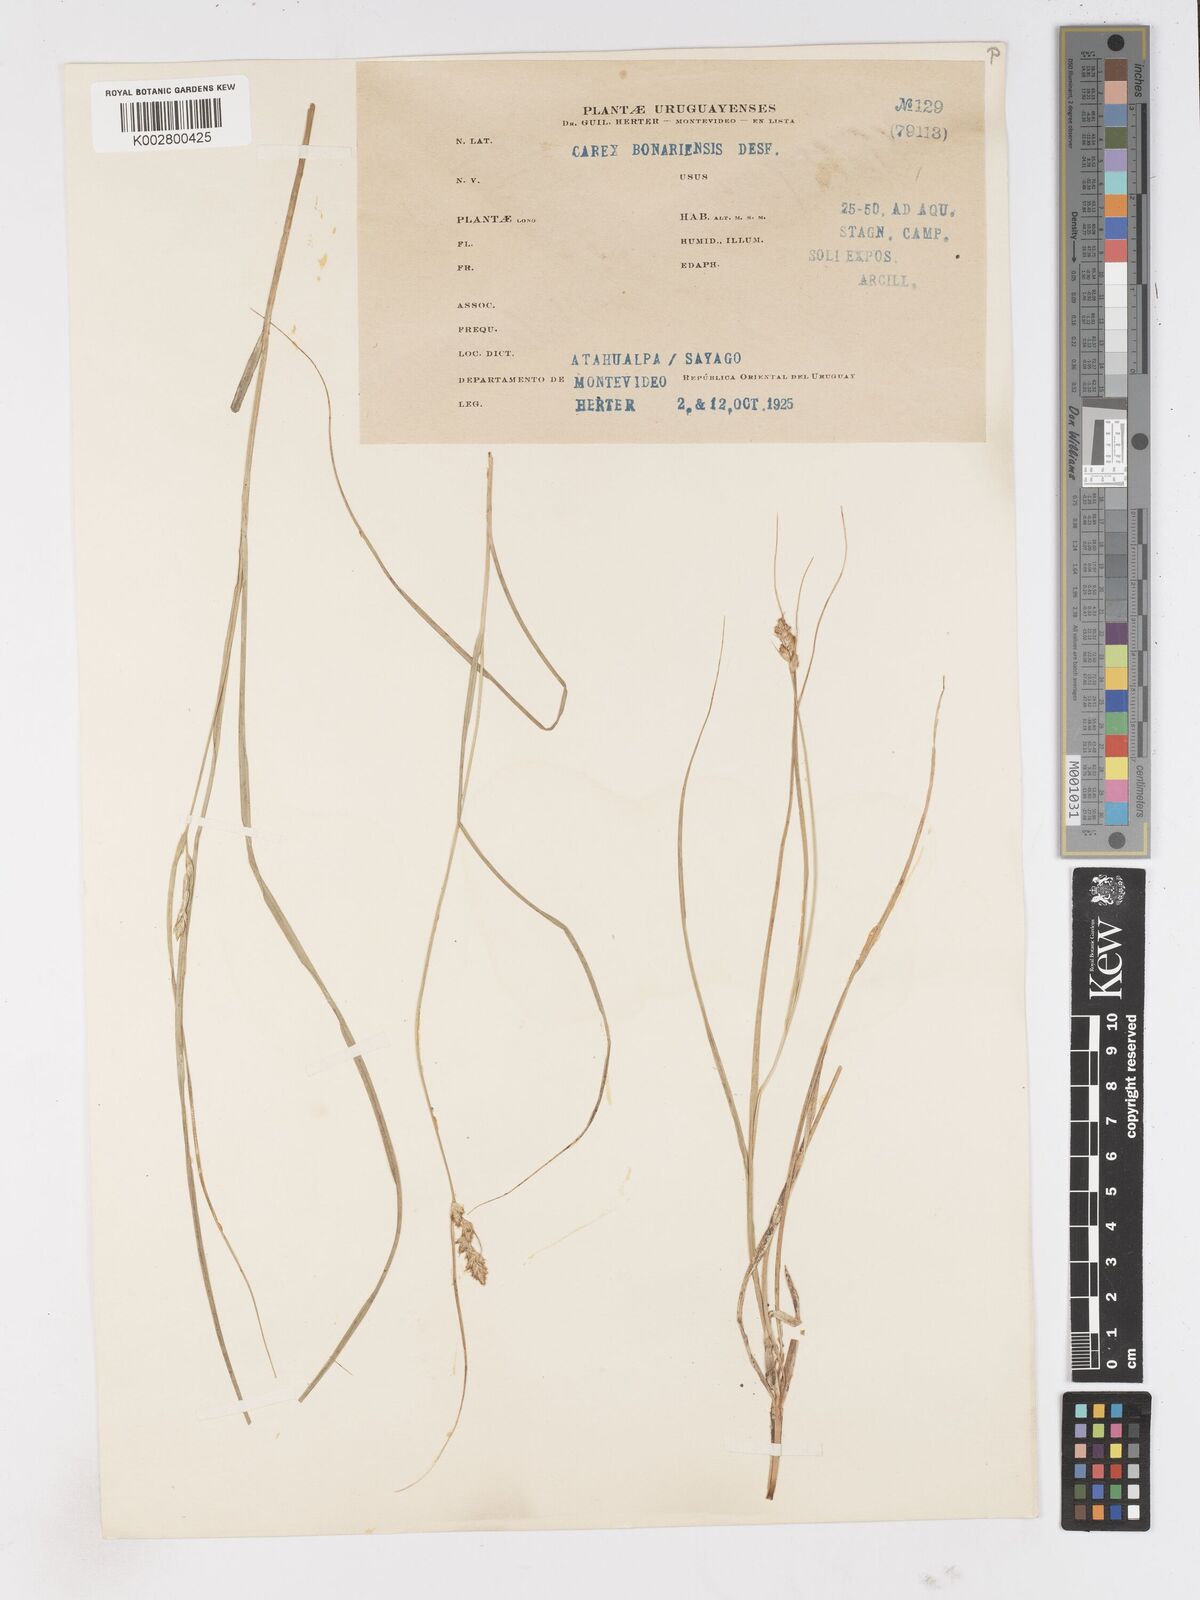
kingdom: Plantae
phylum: Tracheophyta
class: Liliopsida
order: Poales
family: Cyperaceae
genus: Carex
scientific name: Carex bonariensis
